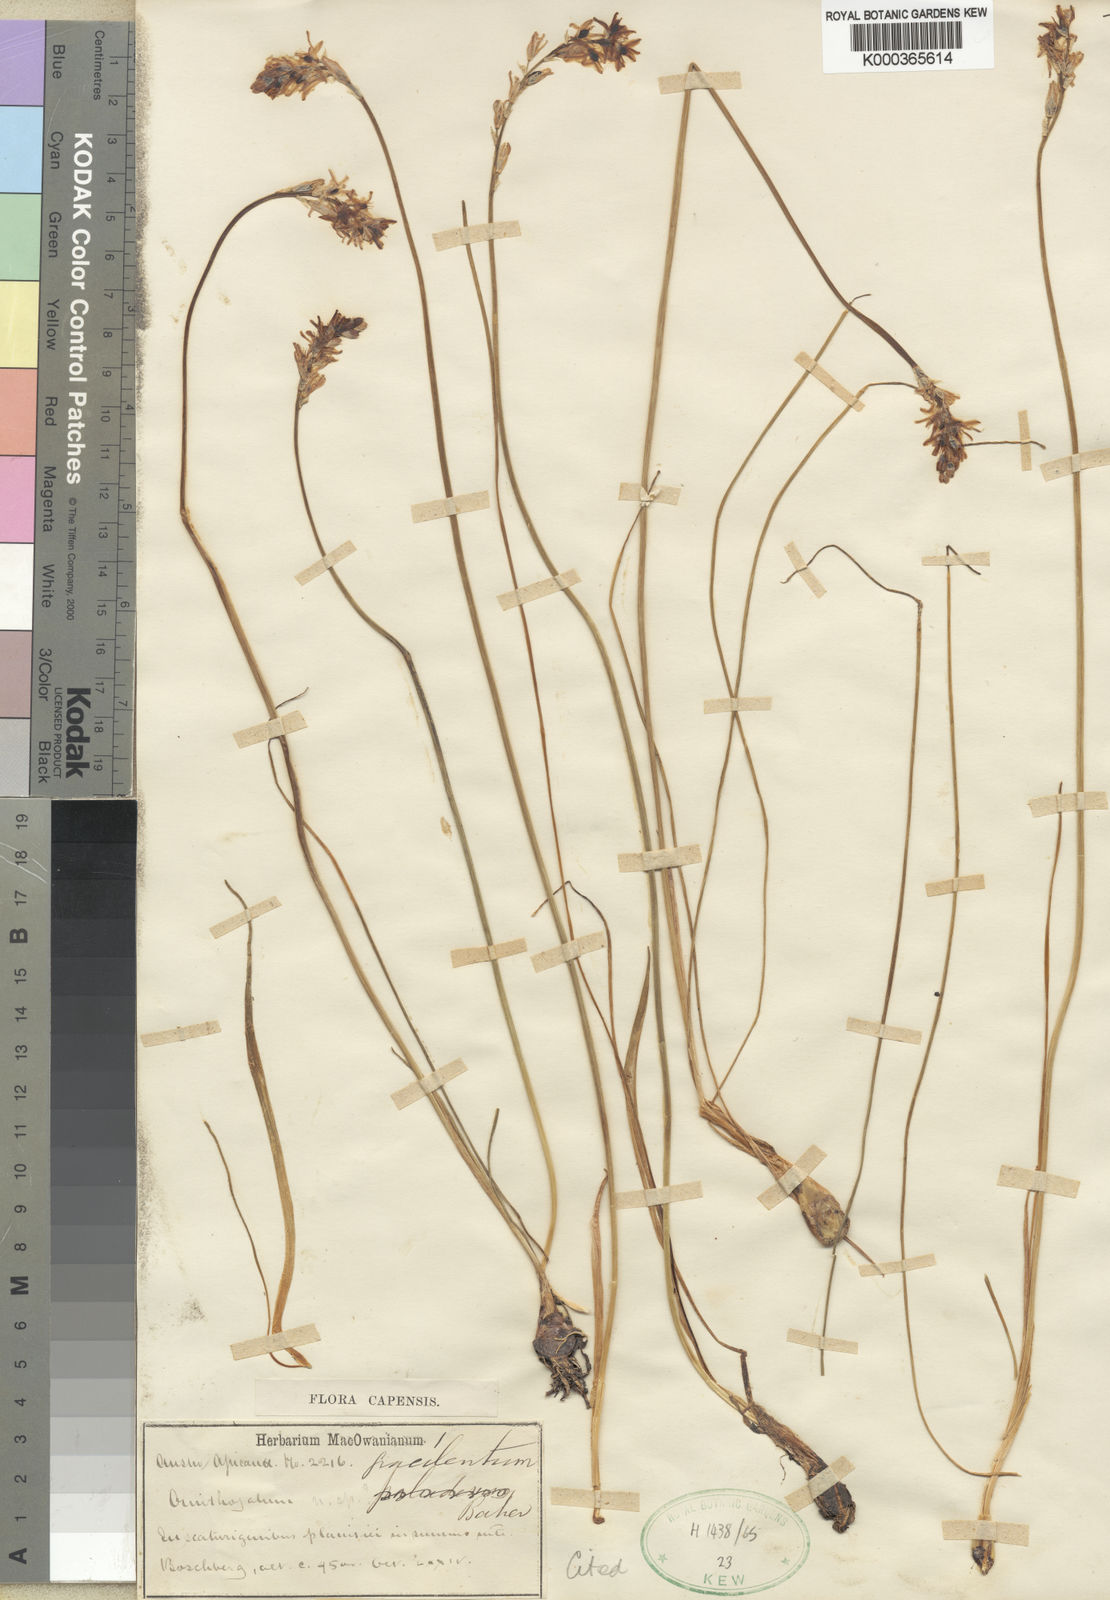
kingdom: Plantae
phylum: Tracheophyta
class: Liliopsida
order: Asparagales
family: Asparagaceae
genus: Ornithogalum
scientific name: Ornithogalum paludosum
